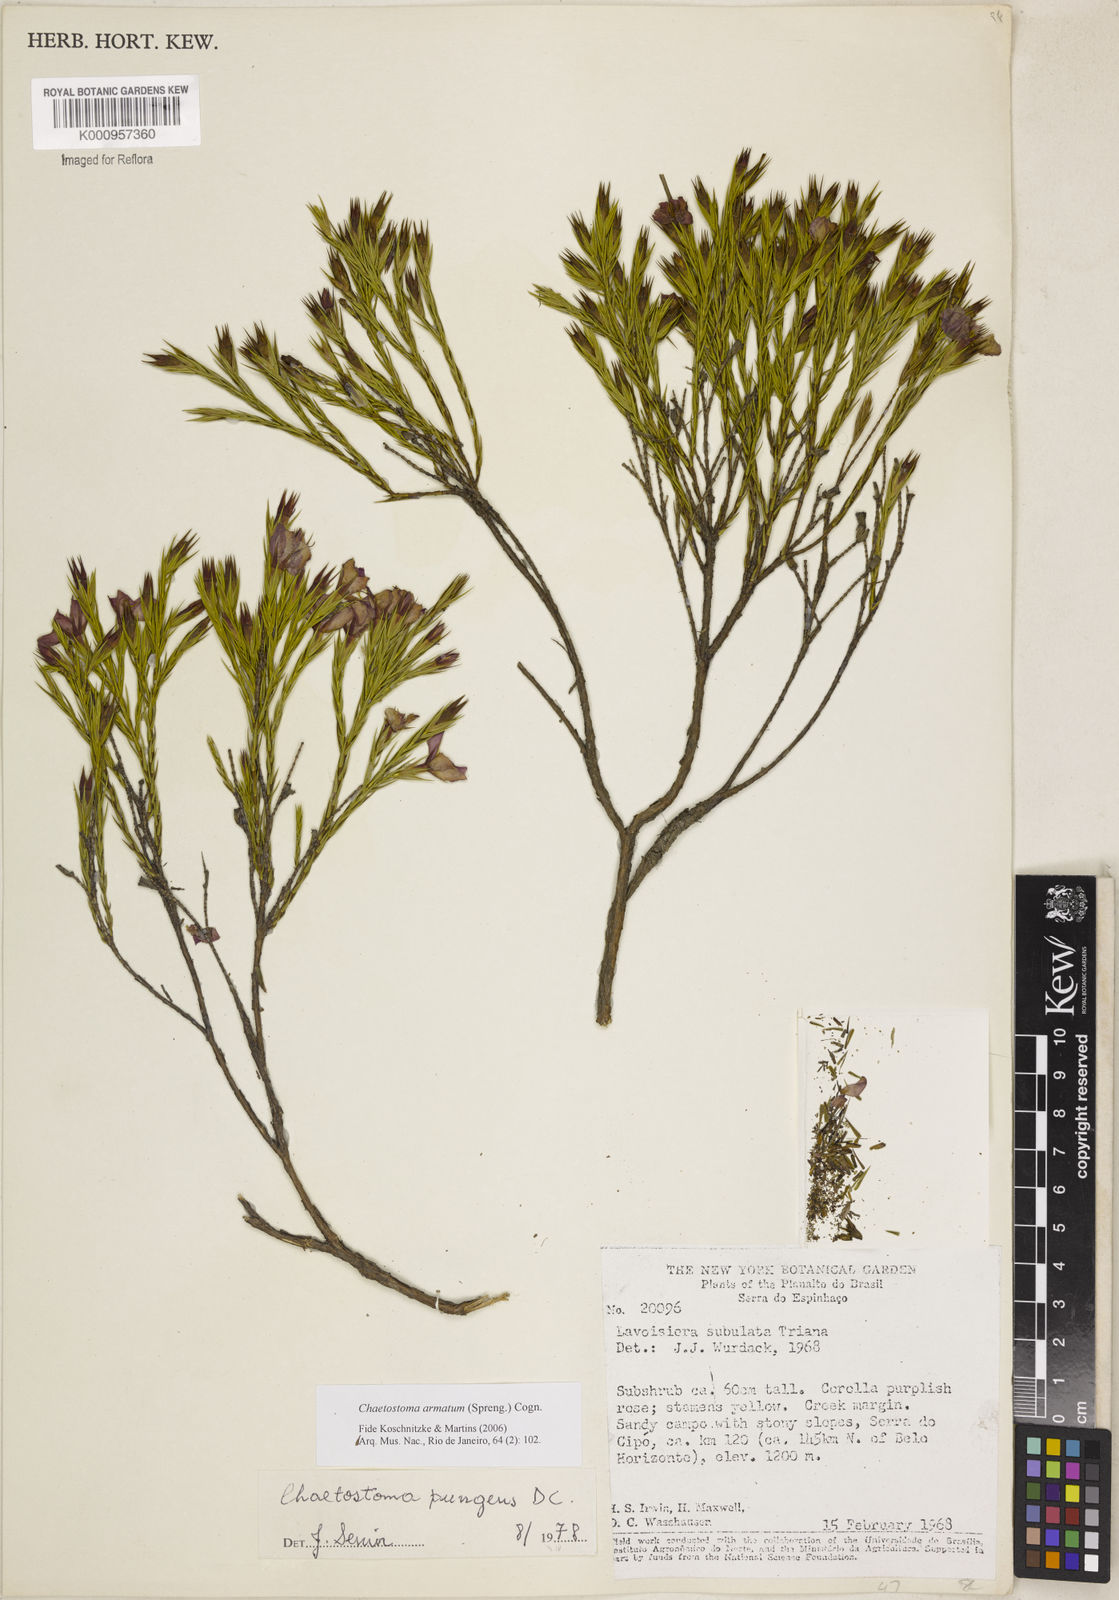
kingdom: Plantae
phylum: Tracheophyta
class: Magnoliopsida
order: Myrtales
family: Melastomataceae
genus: Microlicia
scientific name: Microlicia armata
